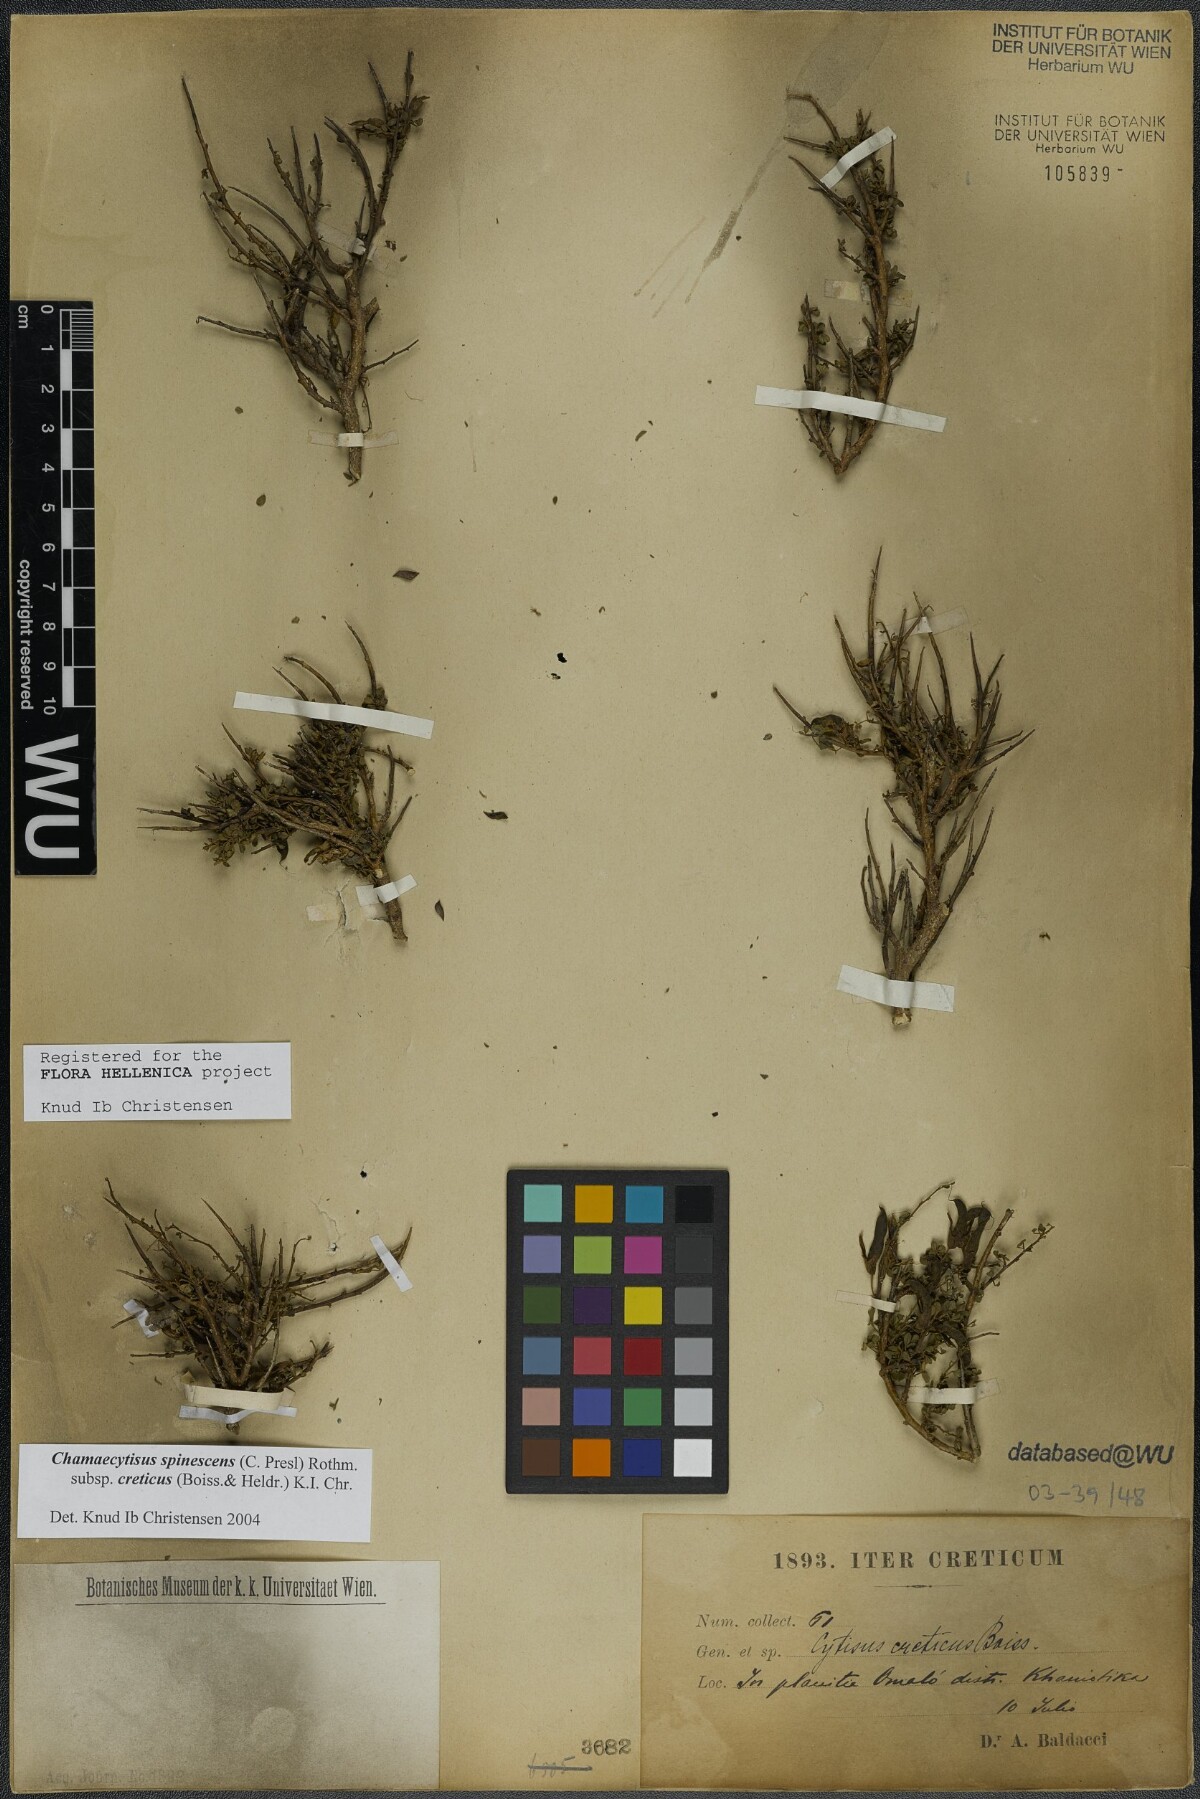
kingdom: Plantae
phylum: Tracheophyta
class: Magnoliopsida
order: Fabales
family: Fabaceae
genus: Chamaecytisus
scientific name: Chamaecytisus spinescens
